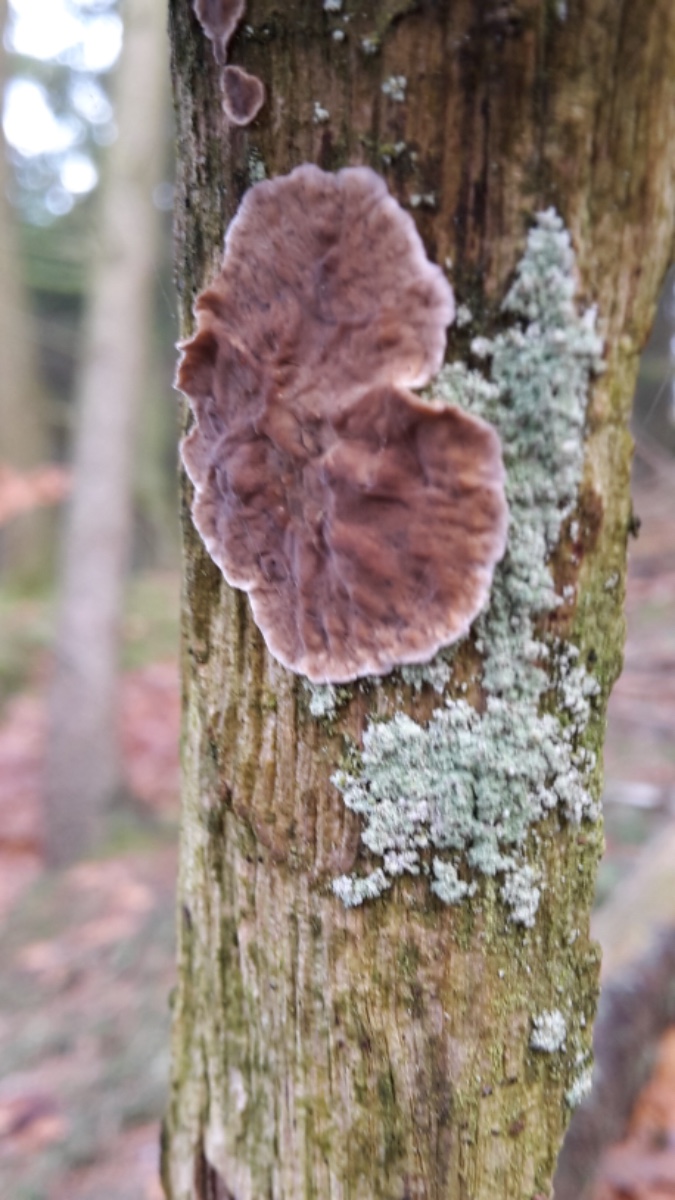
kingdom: Fungi
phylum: Basidiomycota
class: Agaricomycetes
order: Russulales
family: Stereaceae
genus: Stereum
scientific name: Stereum gausapatum
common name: tynd lædersvamp
